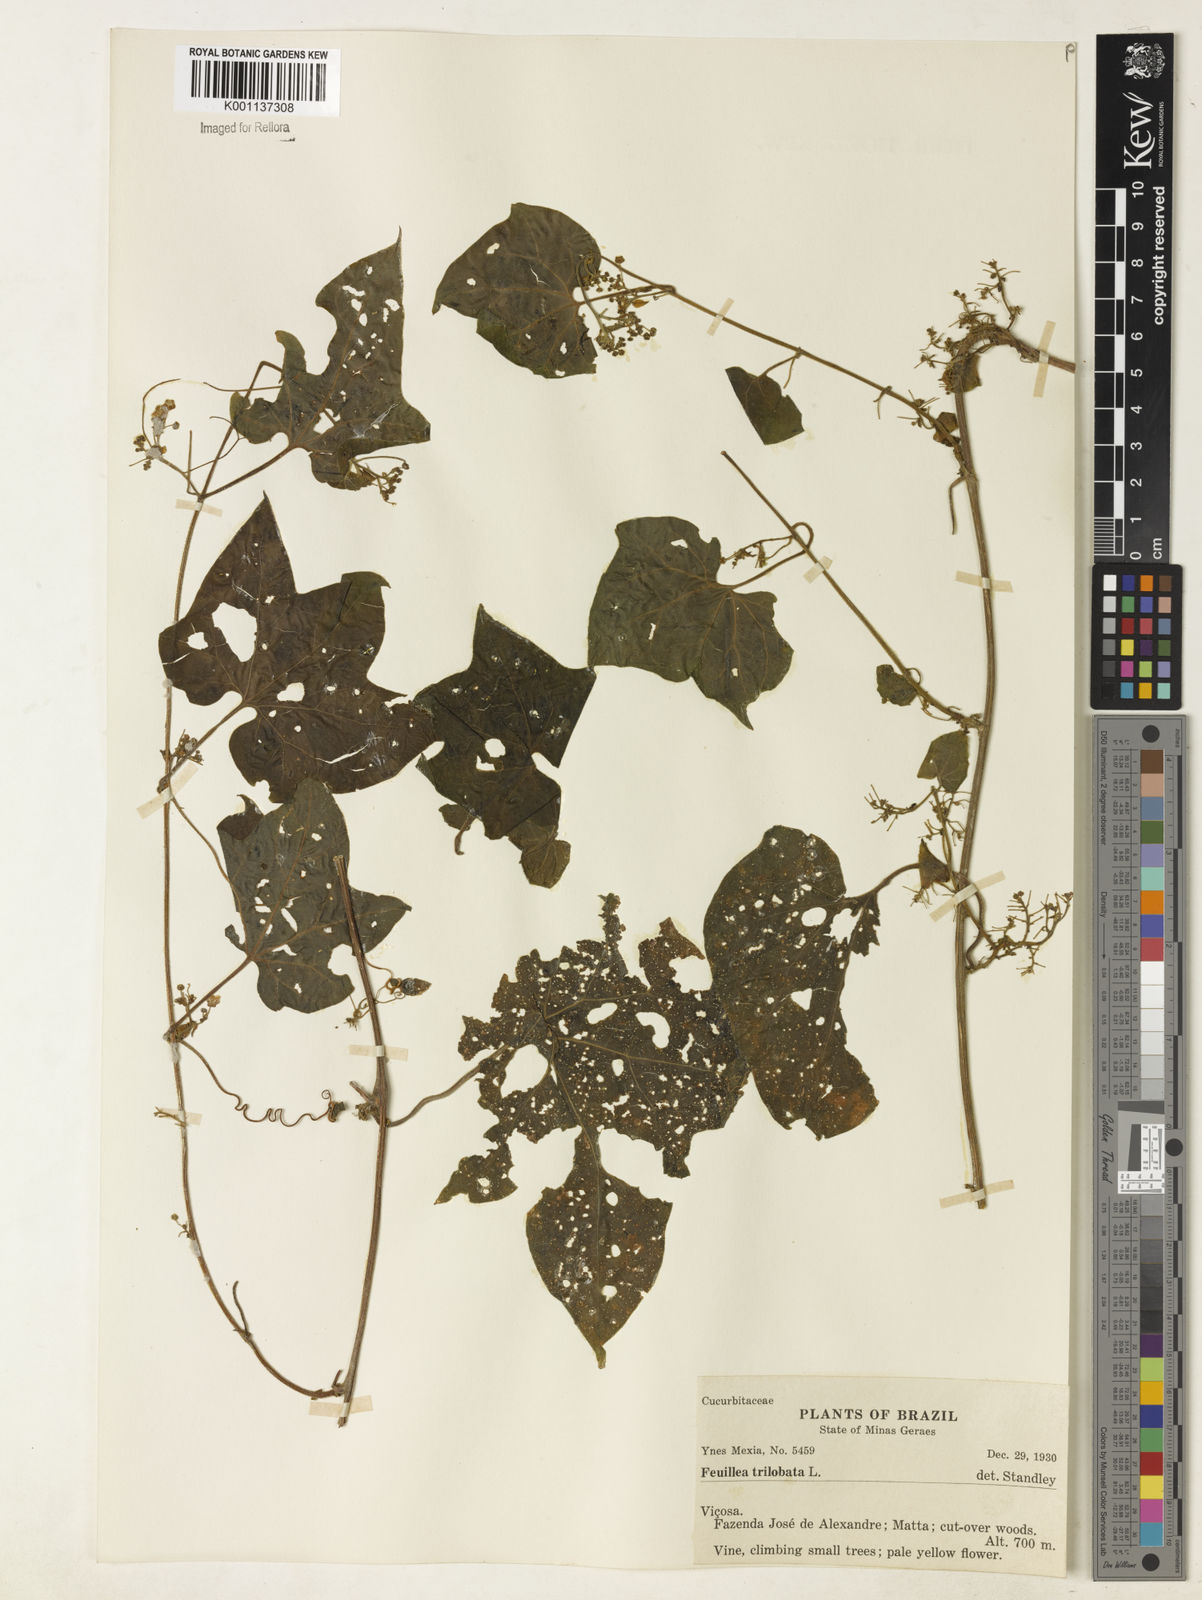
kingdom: Plantae
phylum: Tracheophyta
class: Magnoliopsida
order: Cucurbitales
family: Cucurbitaceae
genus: Fevillea
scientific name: Fevillea trilobata
